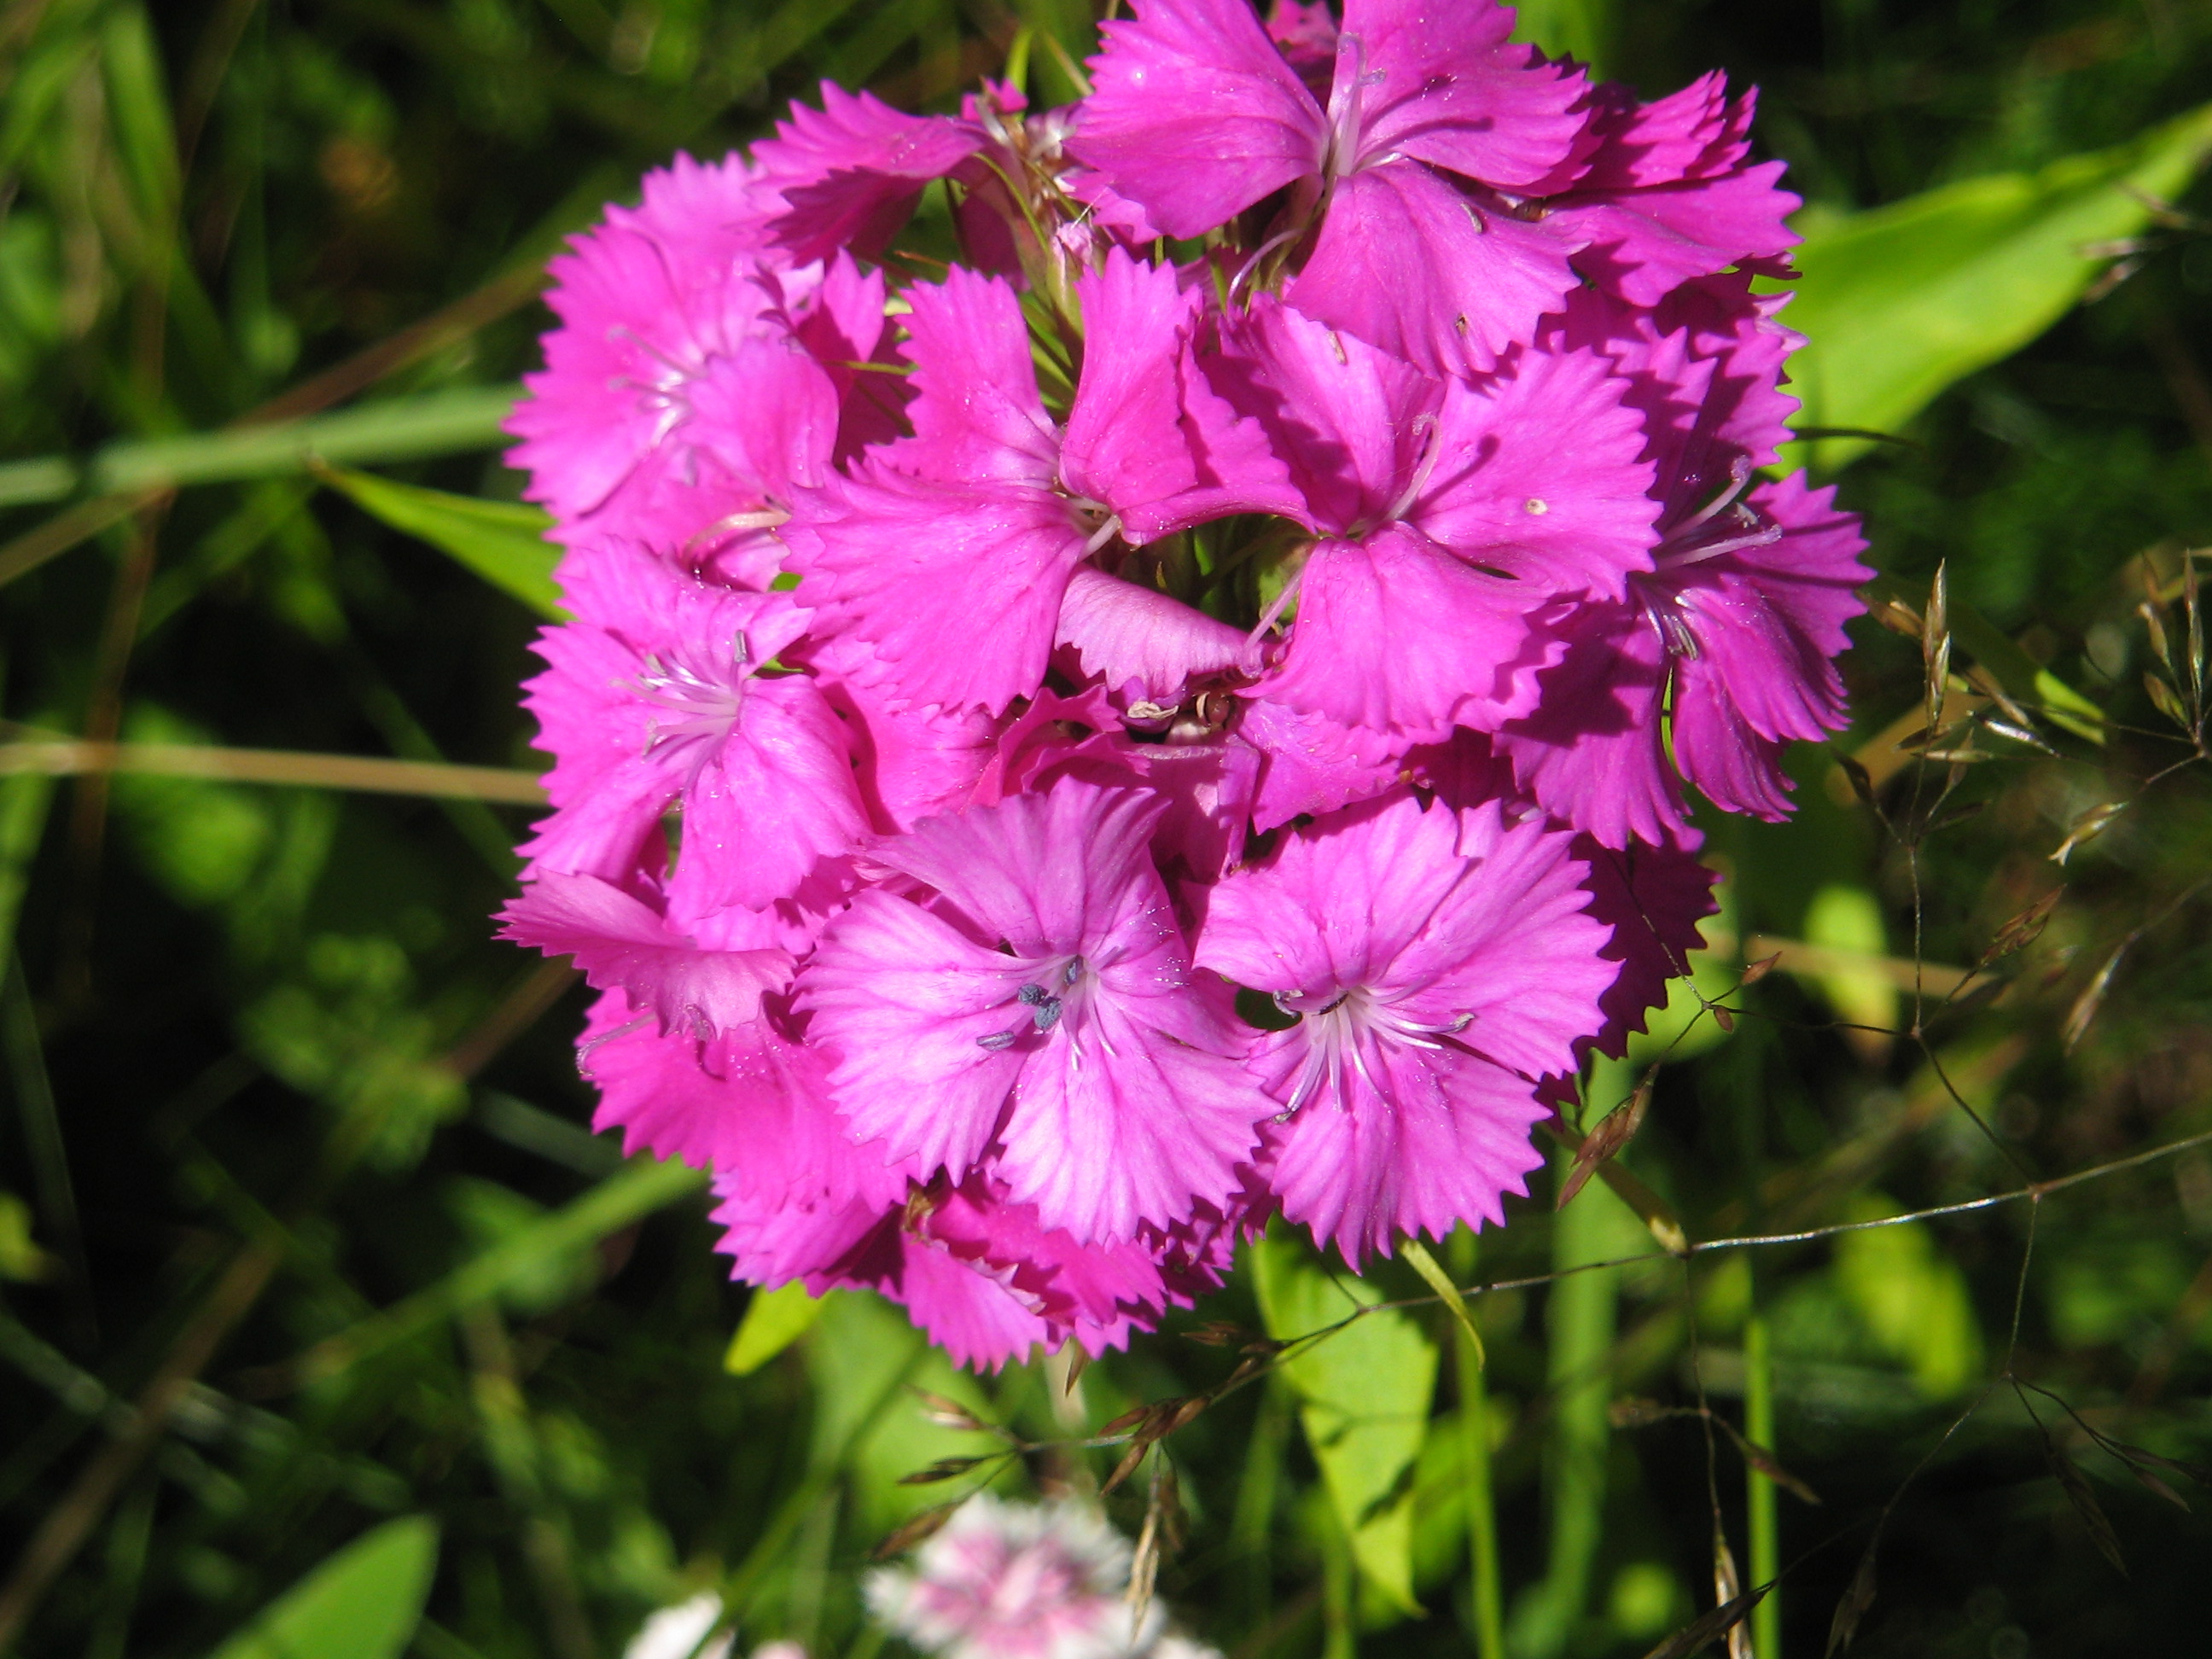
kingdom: Plantae
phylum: Tracheophyta
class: Magnoliopsida
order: Caryophyllales
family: Caryophyllaceae
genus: Dianthus
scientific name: Dianthus barbatus
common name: Sweet-william
